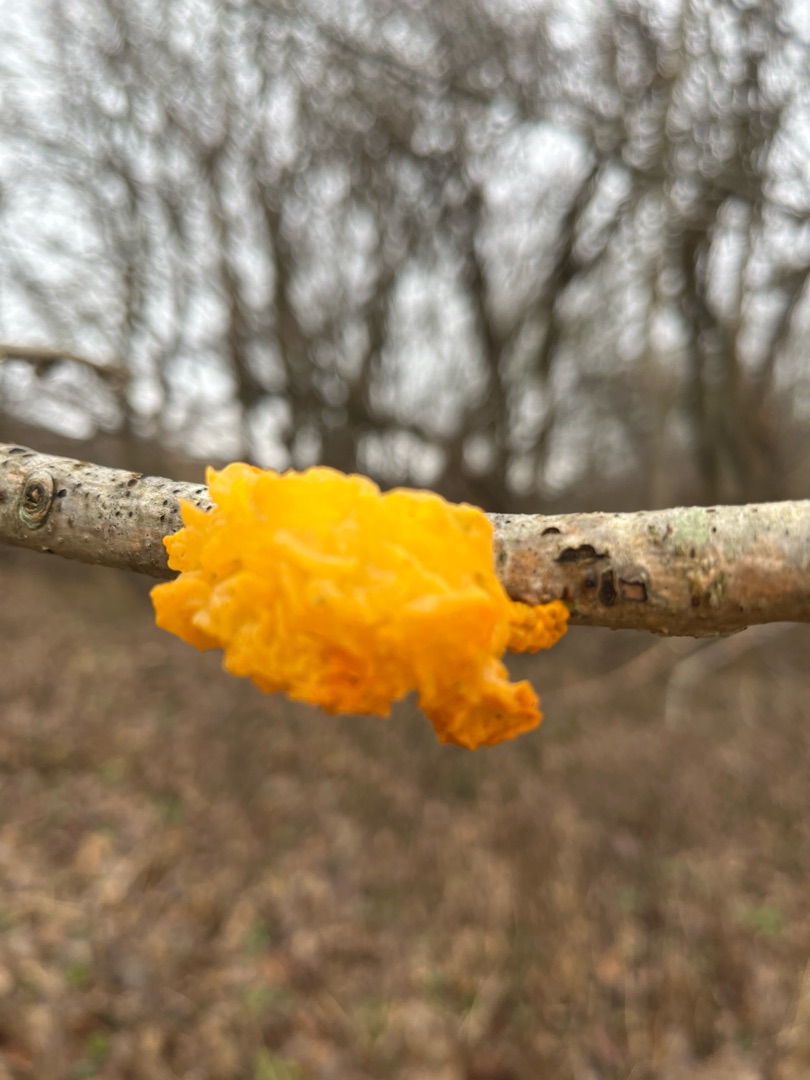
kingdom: Fungi
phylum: Basidiomycota
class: Tremellomycetes
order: Tremellales
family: Tremellaceae
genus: Tremella
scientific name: Tremella mesenterica
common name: Gul bævresvamp
